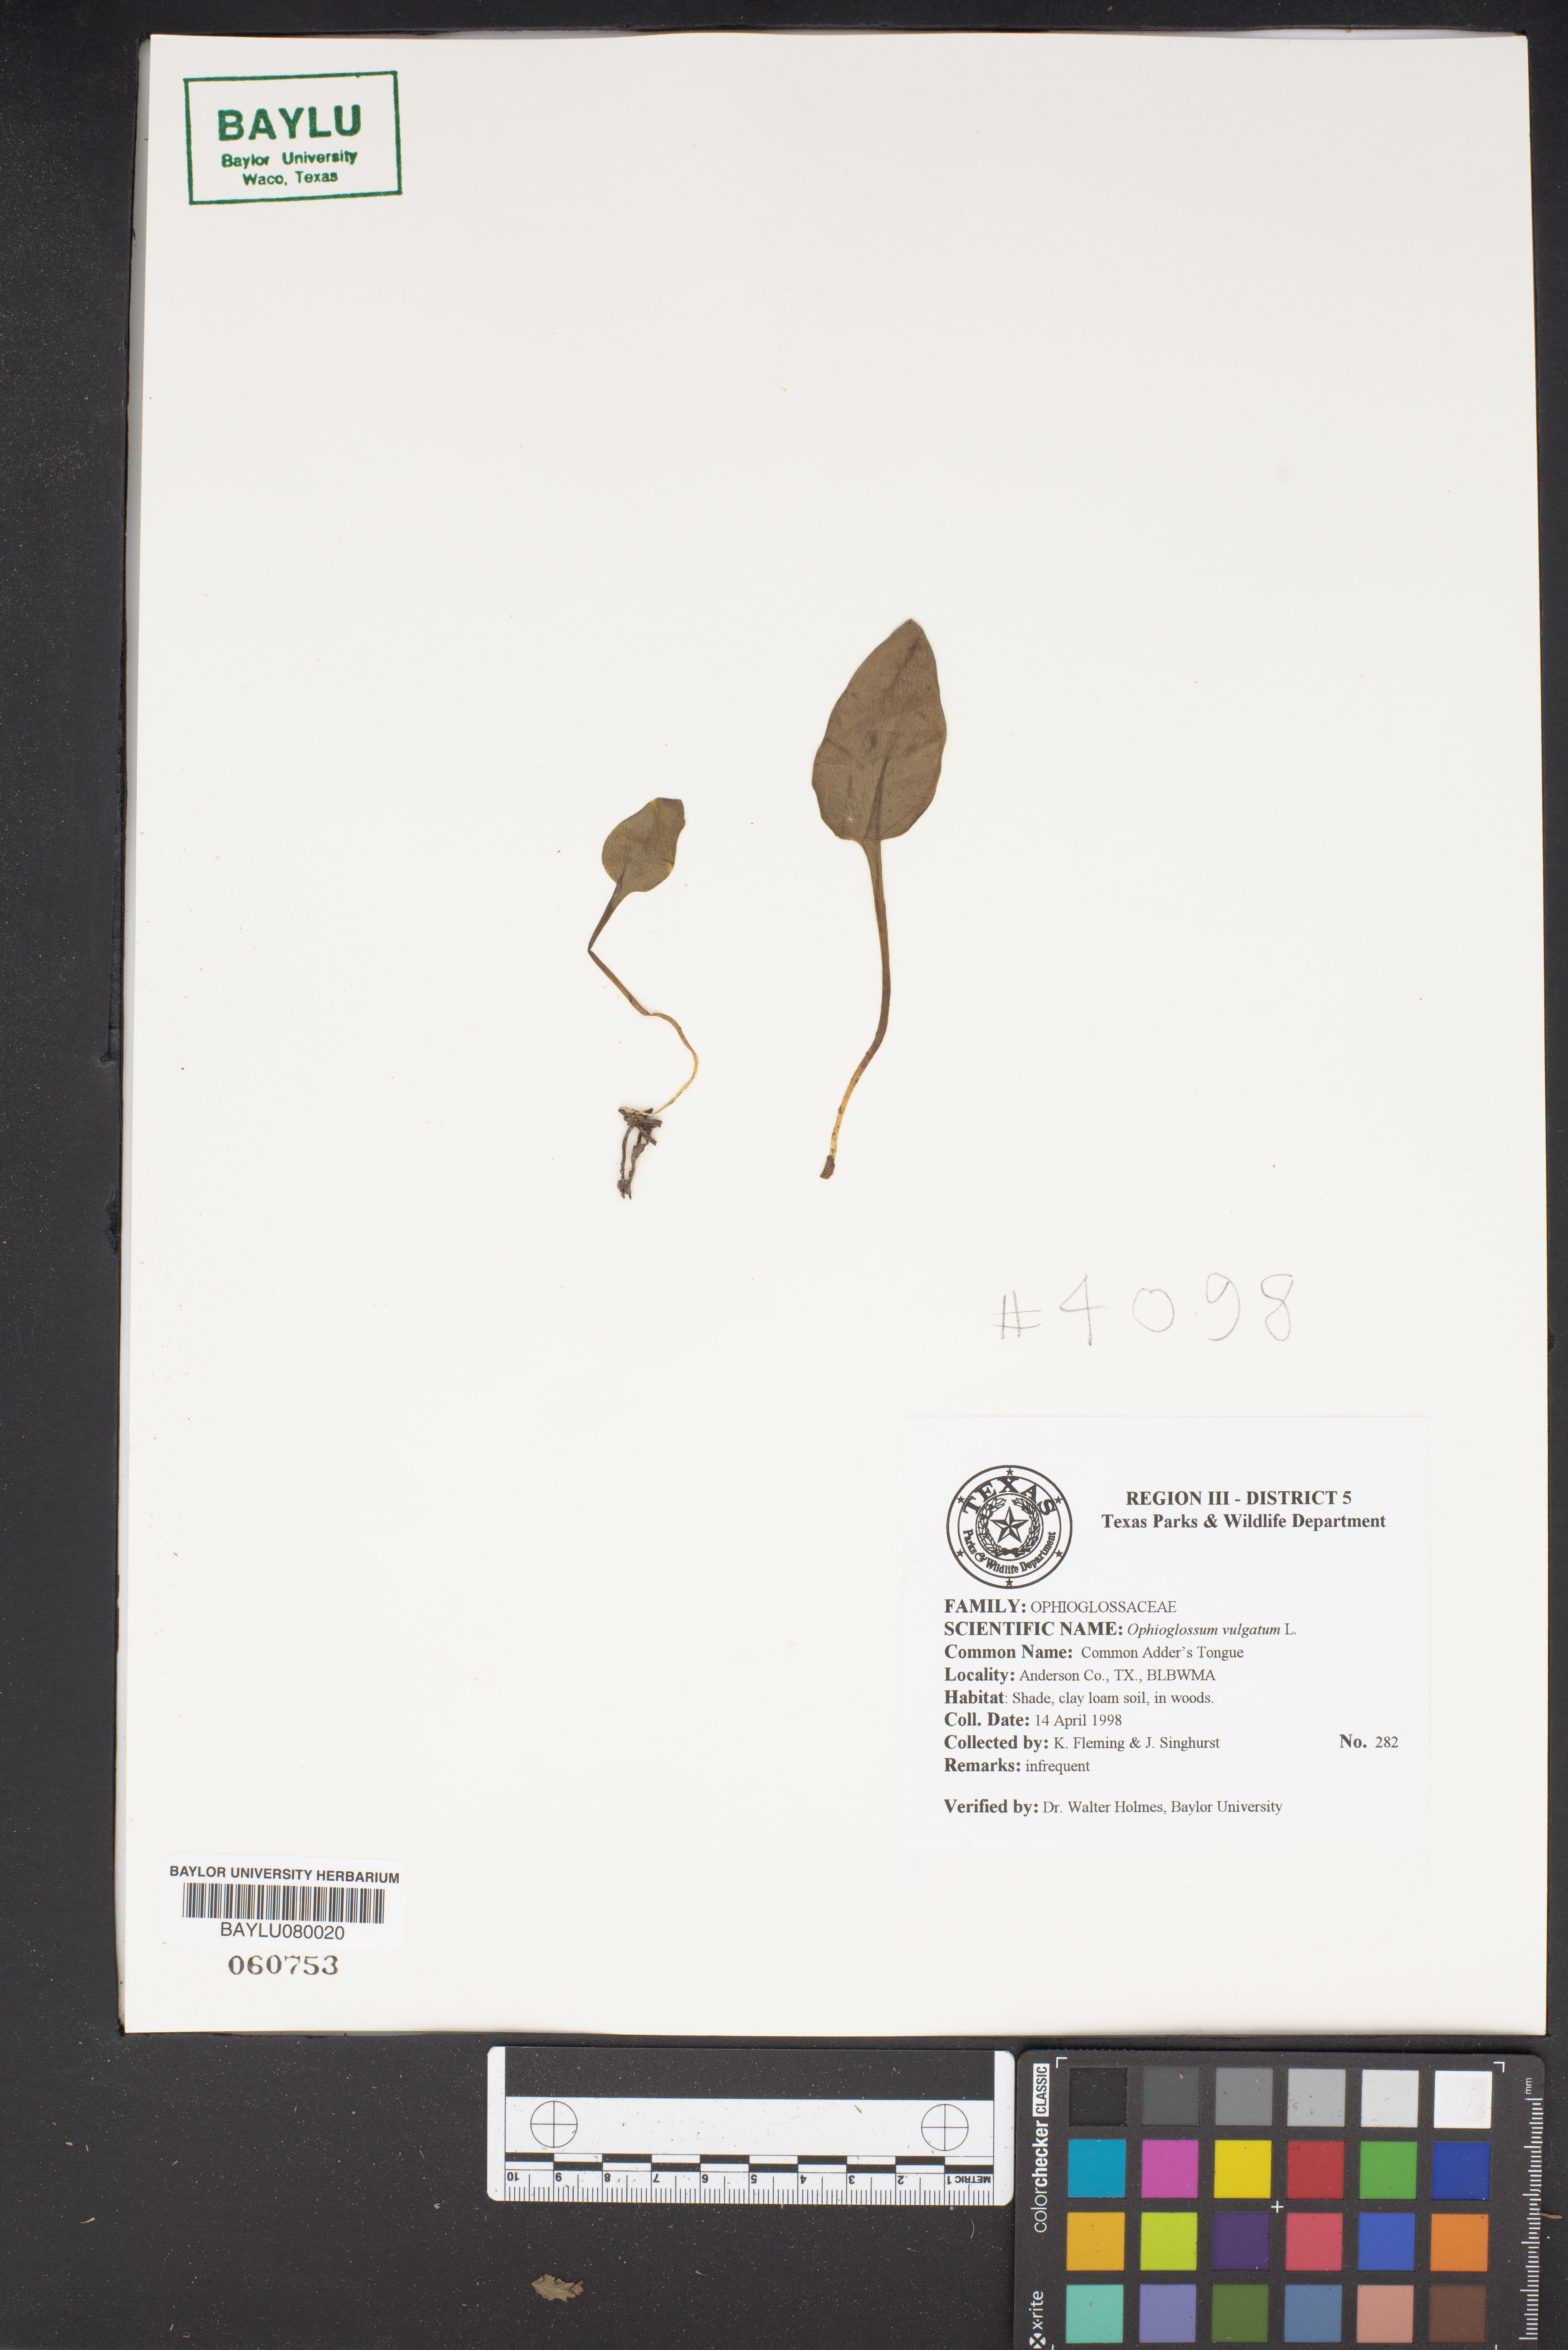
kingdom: Plantae
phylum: Tracheophyta
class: Polypodiopsida
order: Ophioglossales
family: Ophioglossaceae
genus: Ophioglossum
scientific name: Ophioglossum vulgatum
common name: Adder's-tongue
